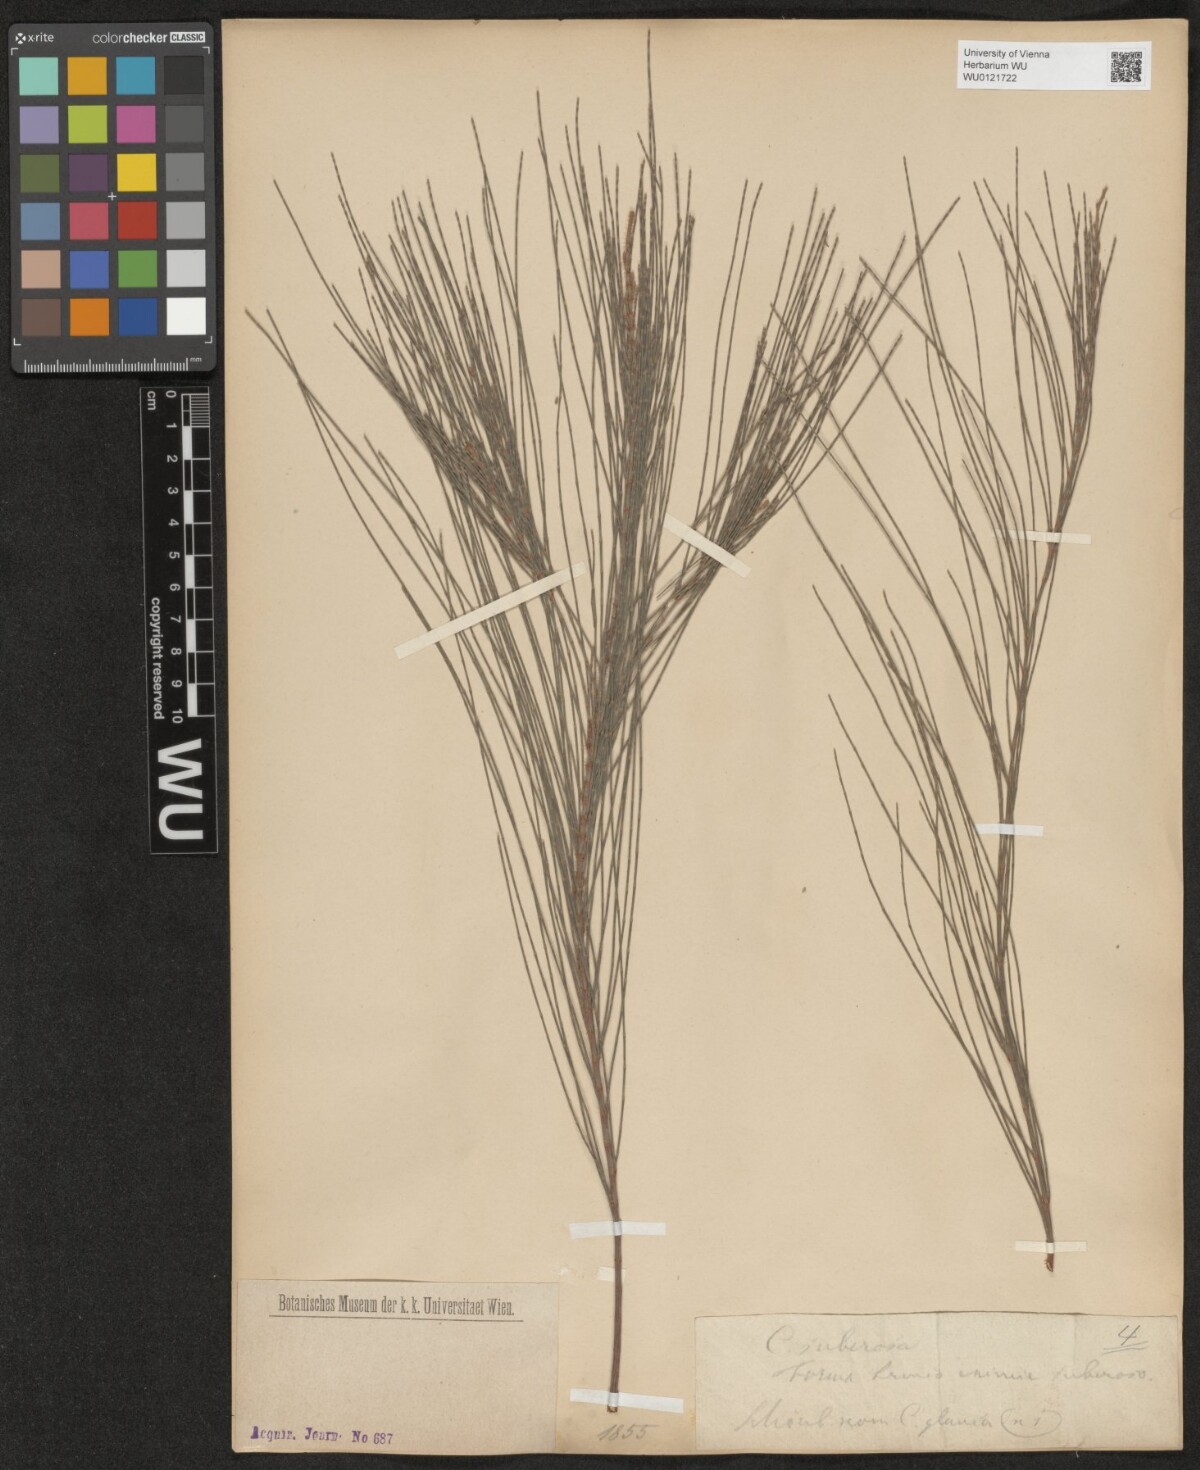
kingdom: Plantae
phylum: Tracheophyta
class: Magnoliopsida
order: Fagales
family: Casuarinaceae
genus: Allocasuarina
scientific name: Allocasuarina littoralis
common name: Black she-oak
